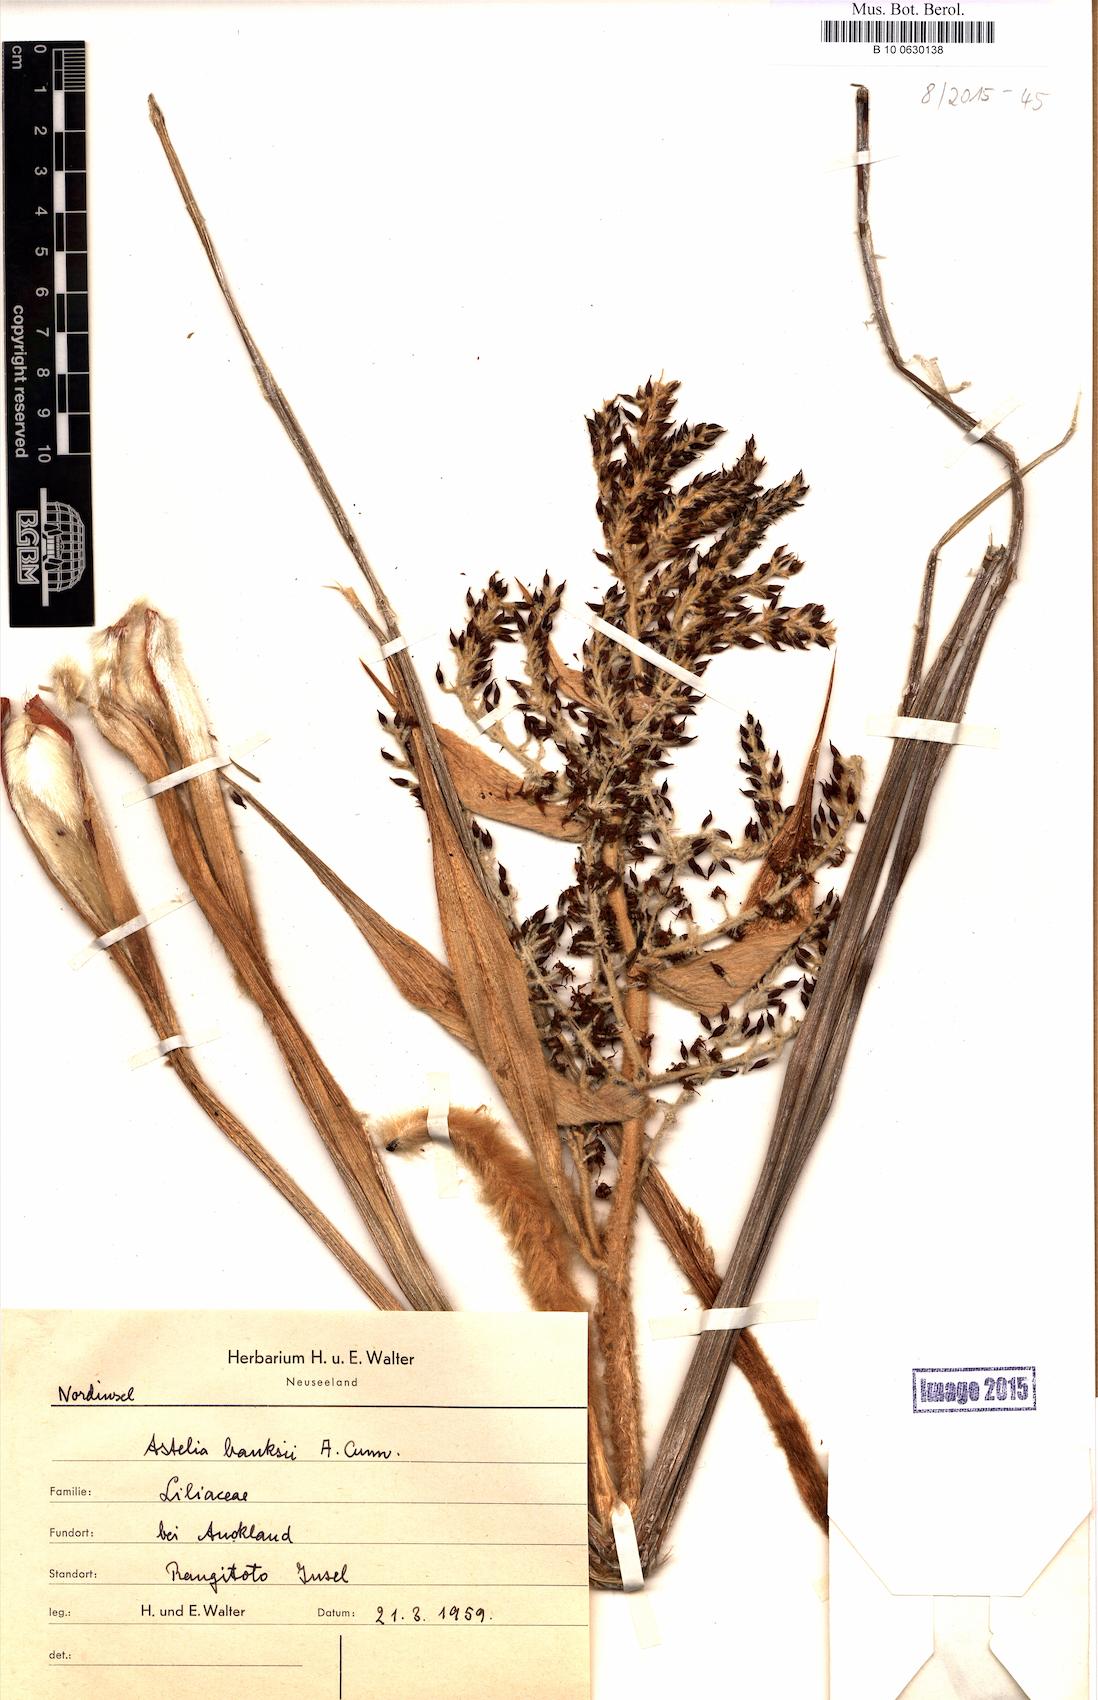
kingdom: Plantae
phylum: Tracheophyta
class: Liliopsida
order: Asparagales
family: Asteliaceae
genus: Astelia
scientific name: Astelia banksii
